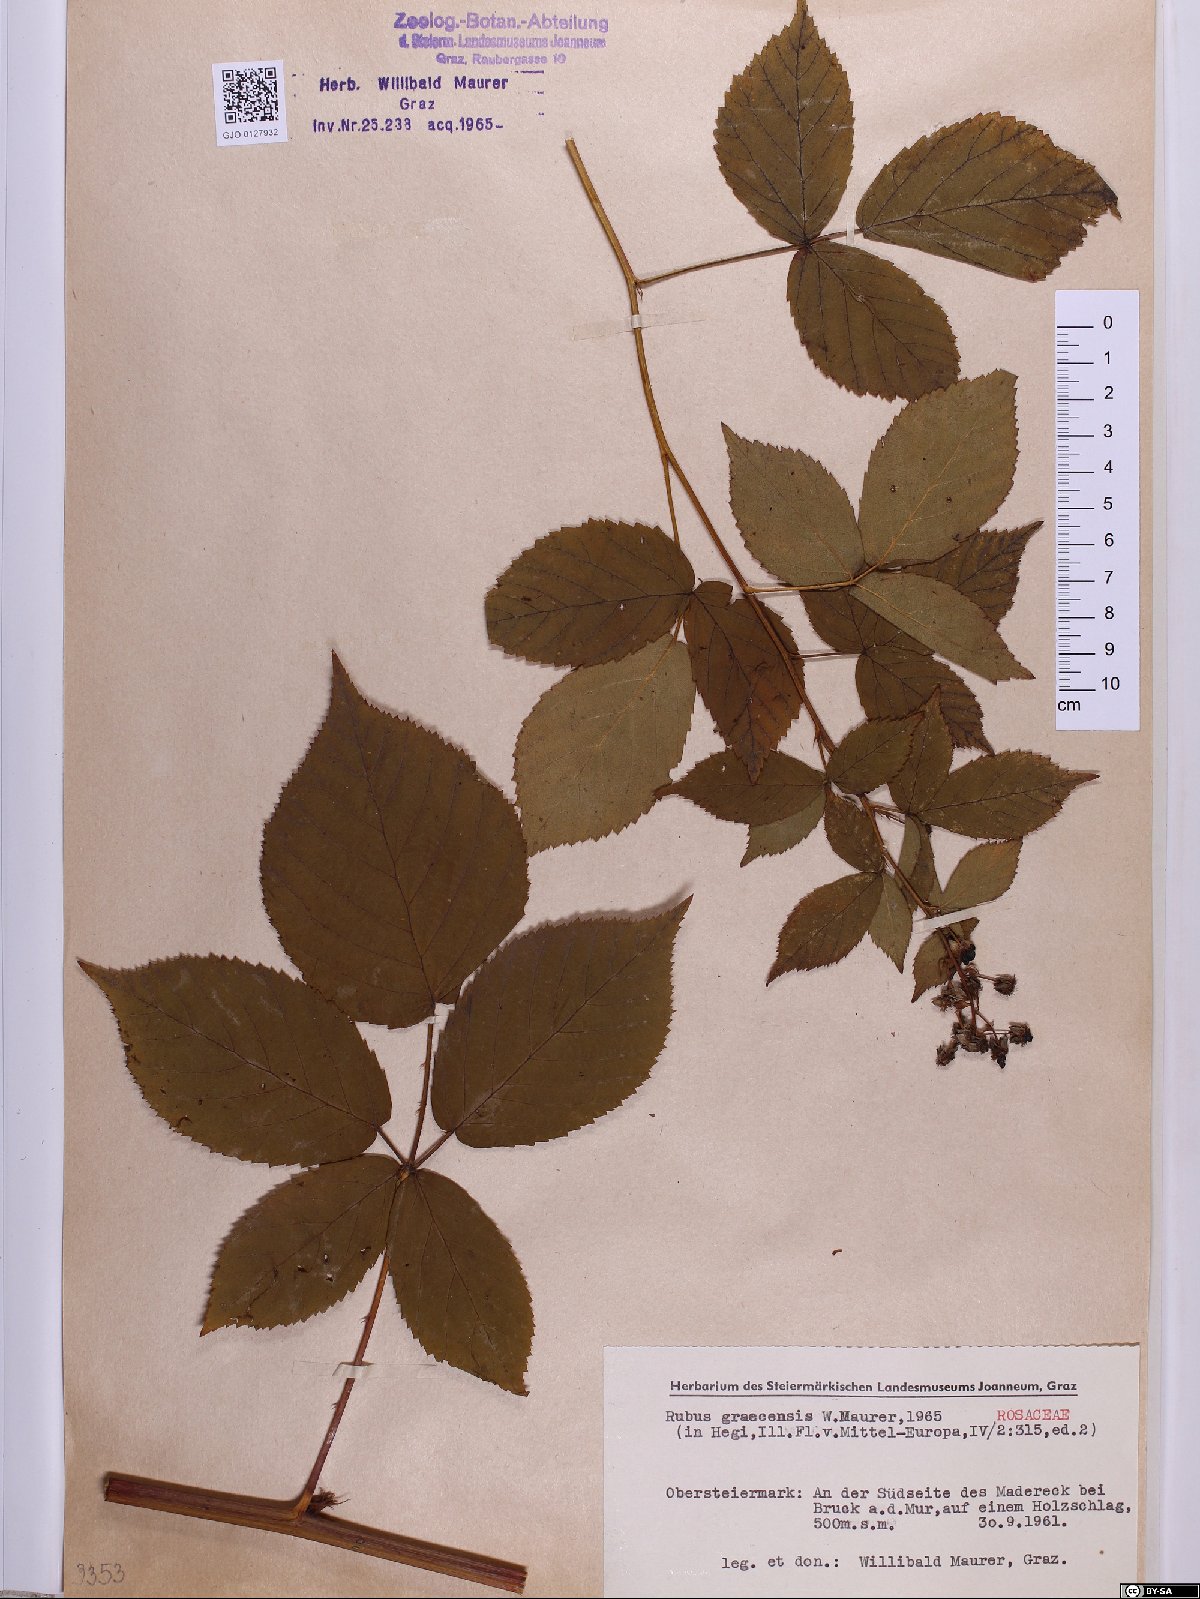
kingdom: Plantae
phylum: Tracheophyta
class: Magnoliopsida
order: Rosales
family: Rosaceae
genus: Rubus
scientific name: Rubus graecensis
